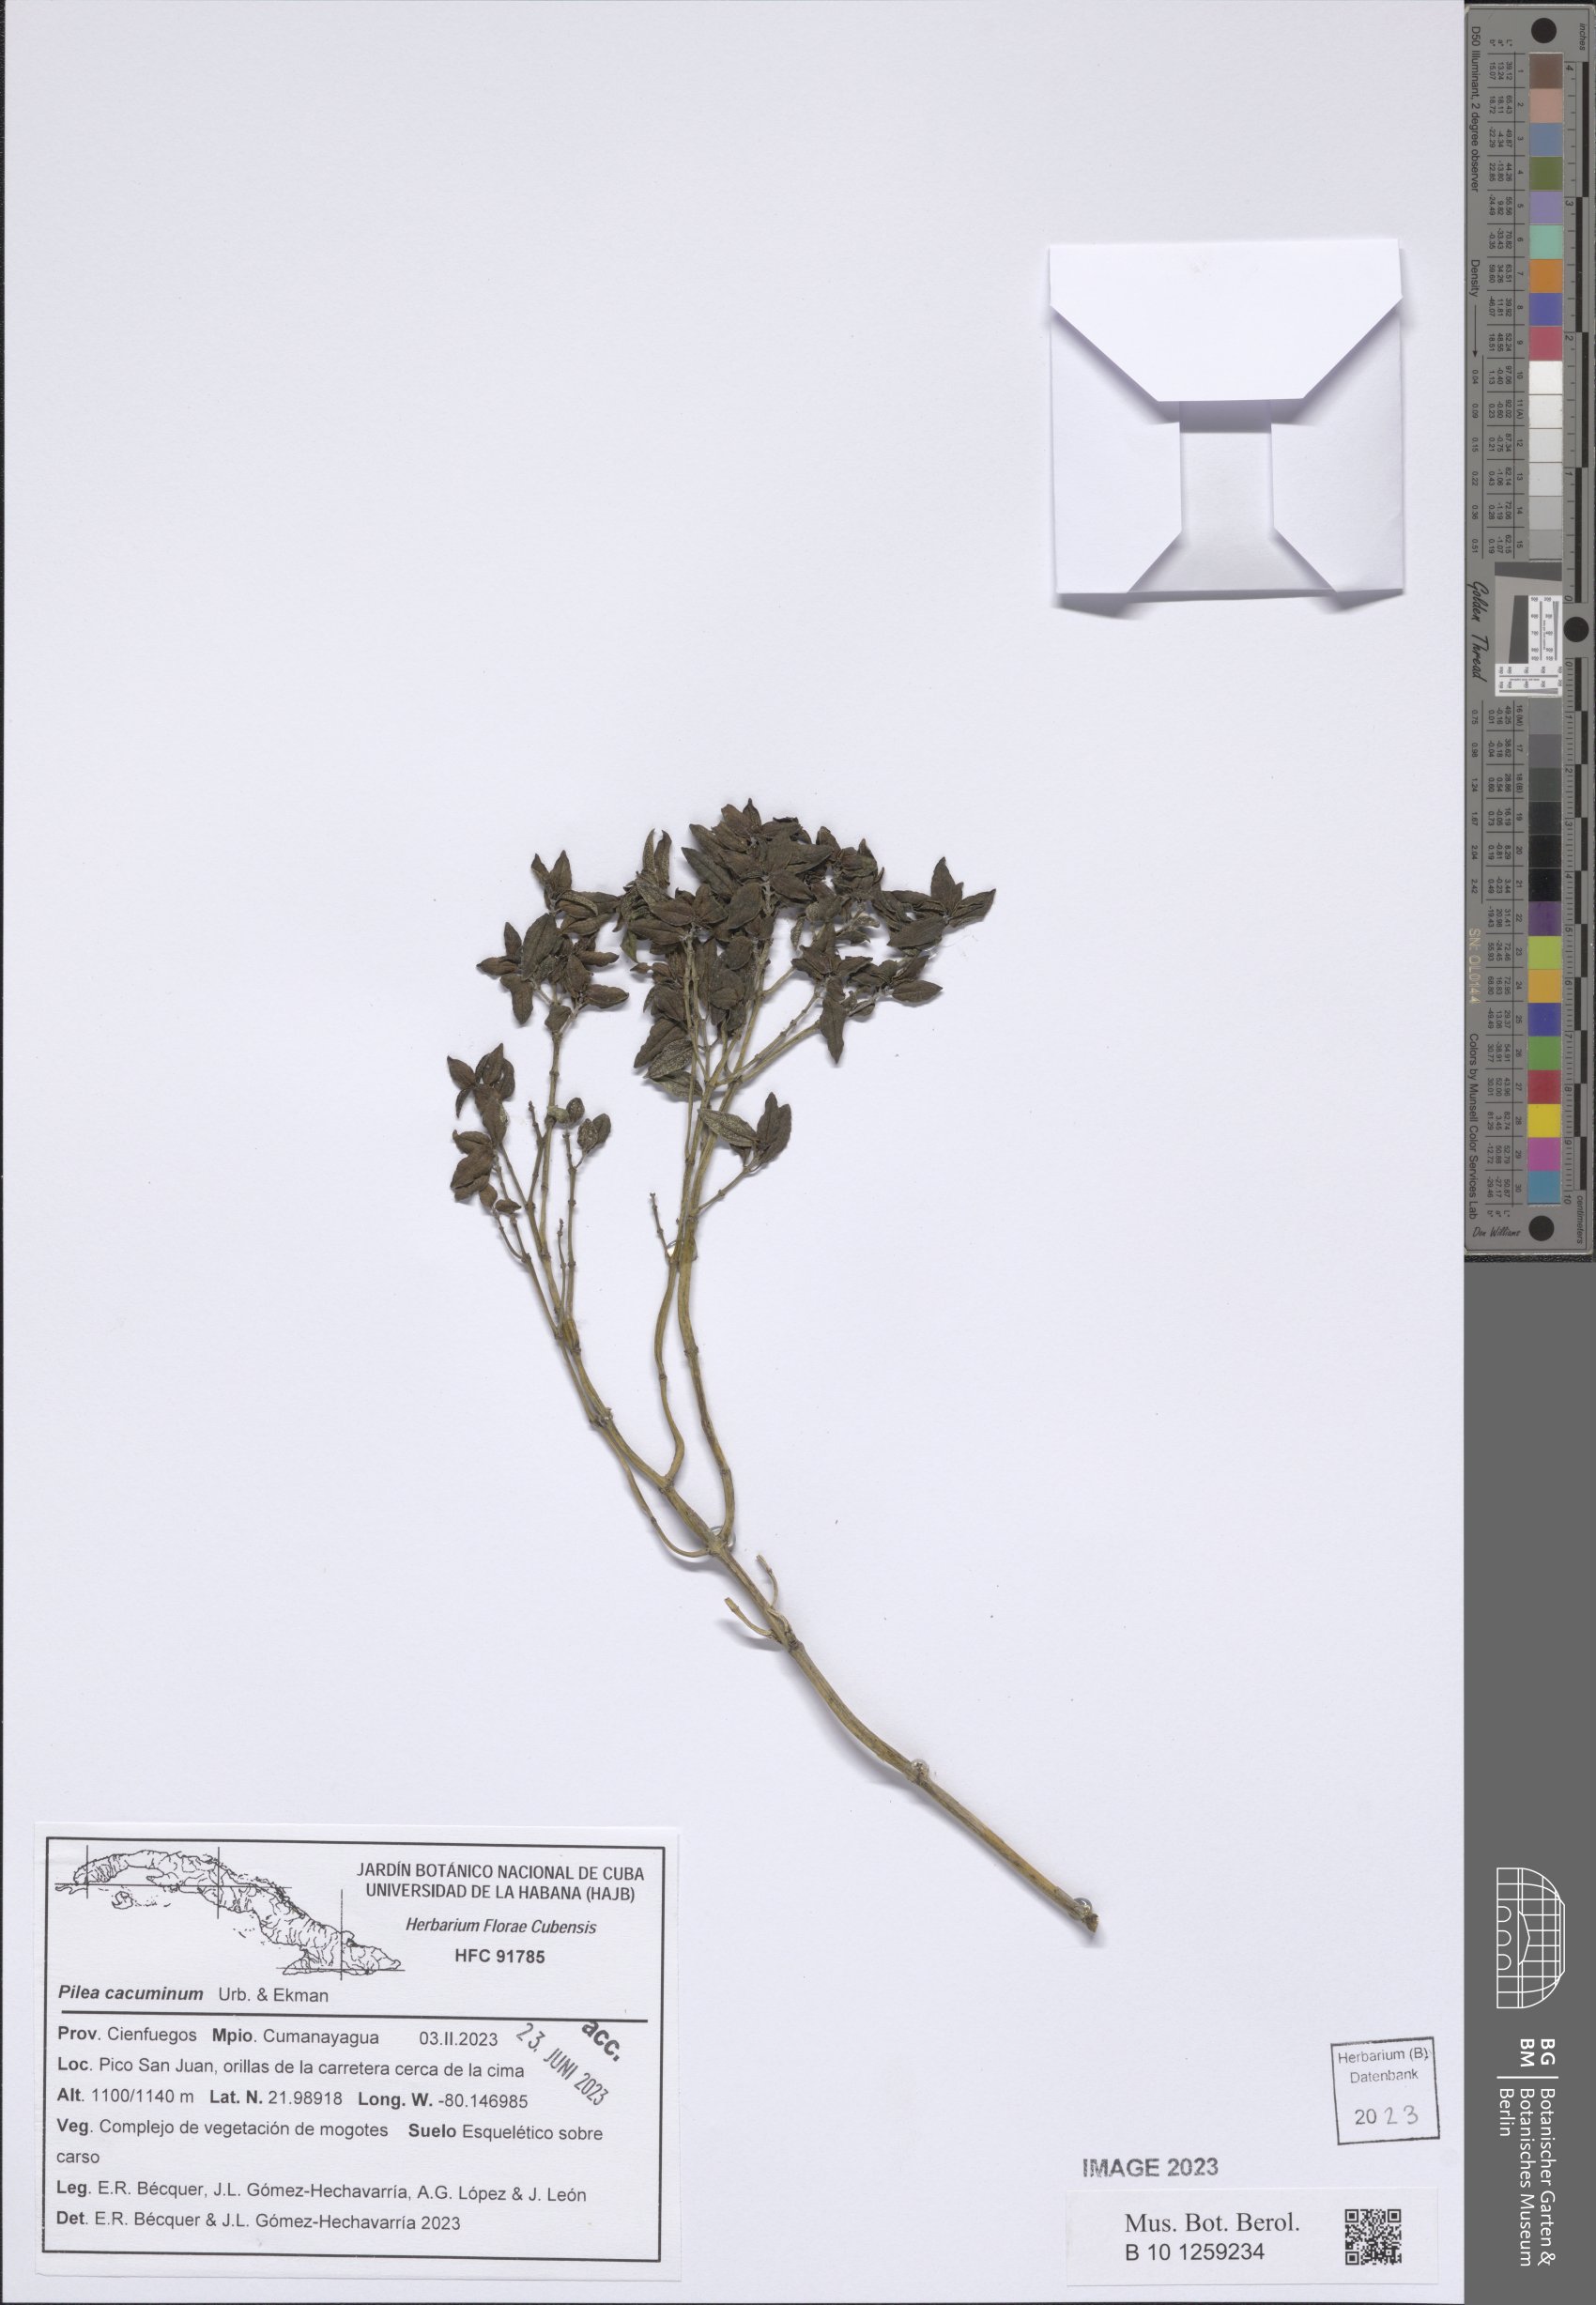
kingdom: Plantae
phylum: Tracheophyta
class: Magnoliopsida
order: Rosales
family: Urticaceae
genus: Pilea
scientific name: Pilea cacuminum
